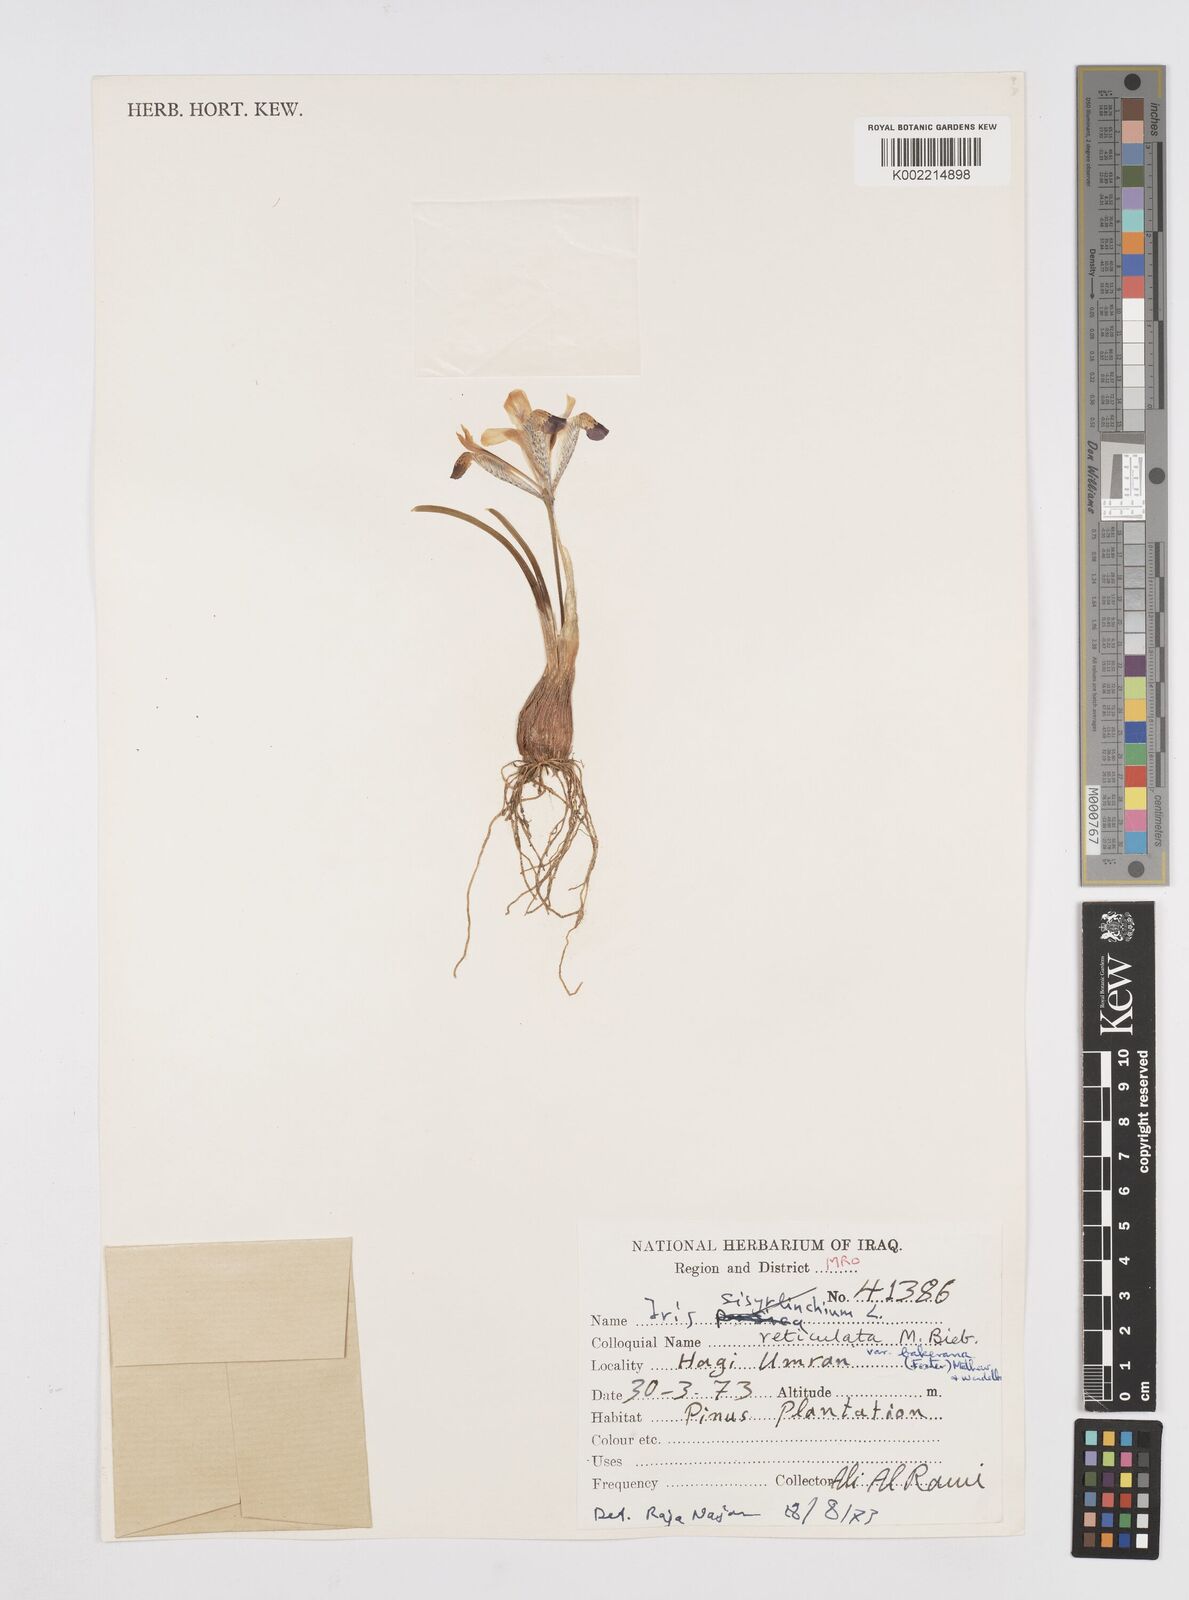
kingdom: Plantae
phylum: Tracheophyta
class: Liliopsida
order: Asparagales
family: Iridaceae
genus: Iris
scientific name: Iris reticulata
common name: Netted iris
